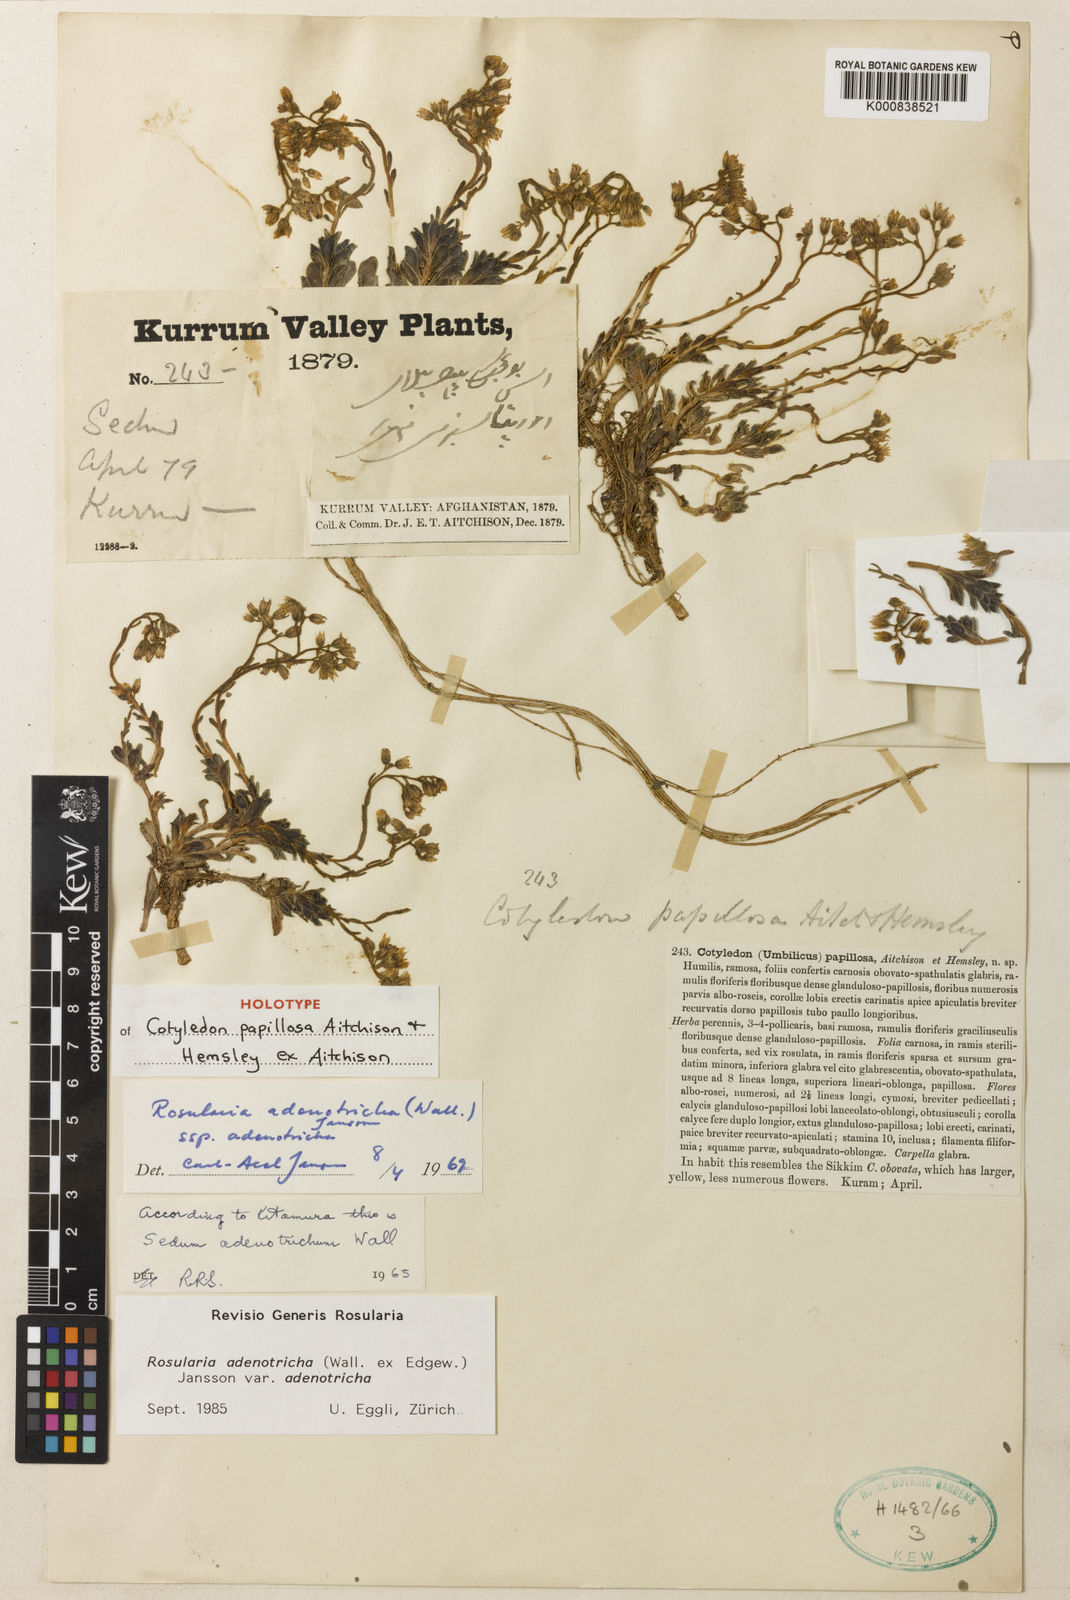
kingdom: Plantae
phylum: Tracheophyta
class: Magnoliopsida
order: Saxifragales
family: Crassulaceae
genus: Rosularia
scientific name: Rosularia adenotricha
